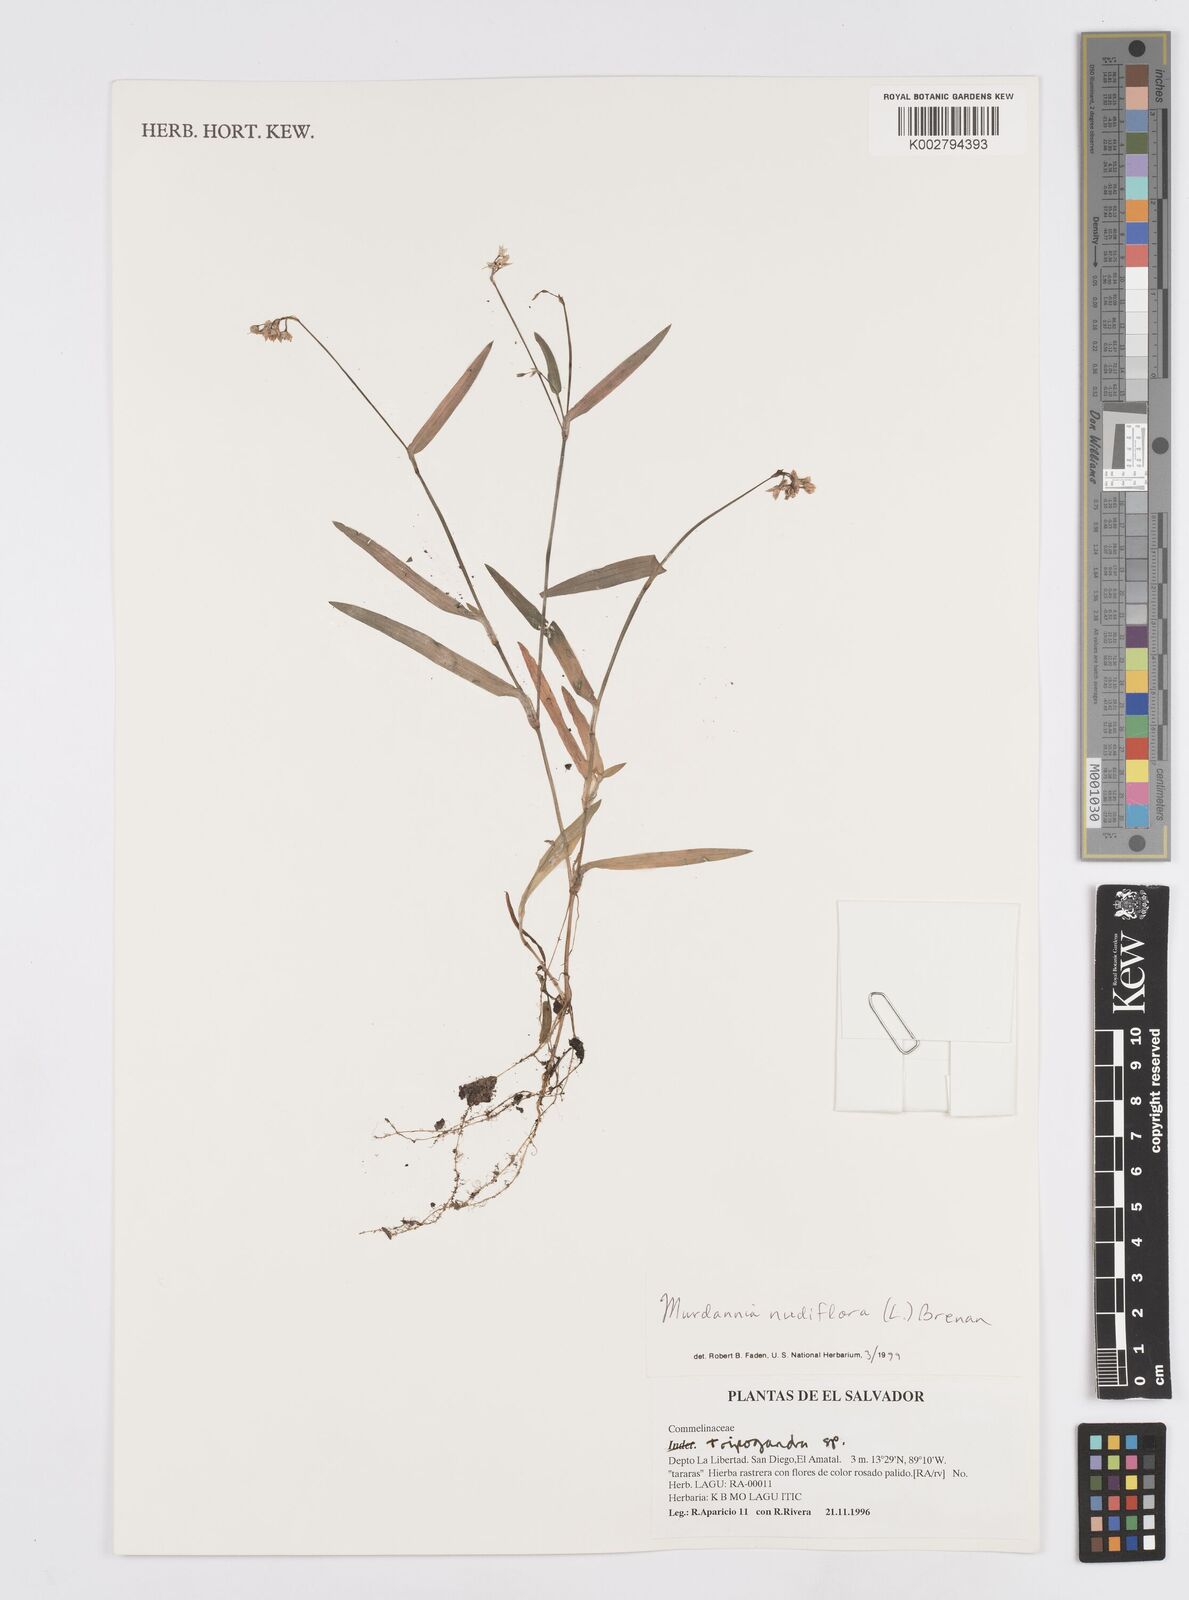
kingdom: Plantae
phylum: Tracheophyta
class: Liliopsida
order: Commelinales
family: Commelinaceae
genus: Murdannia
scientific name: Murdannia nudiflora
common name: Nakedstem dewflower
